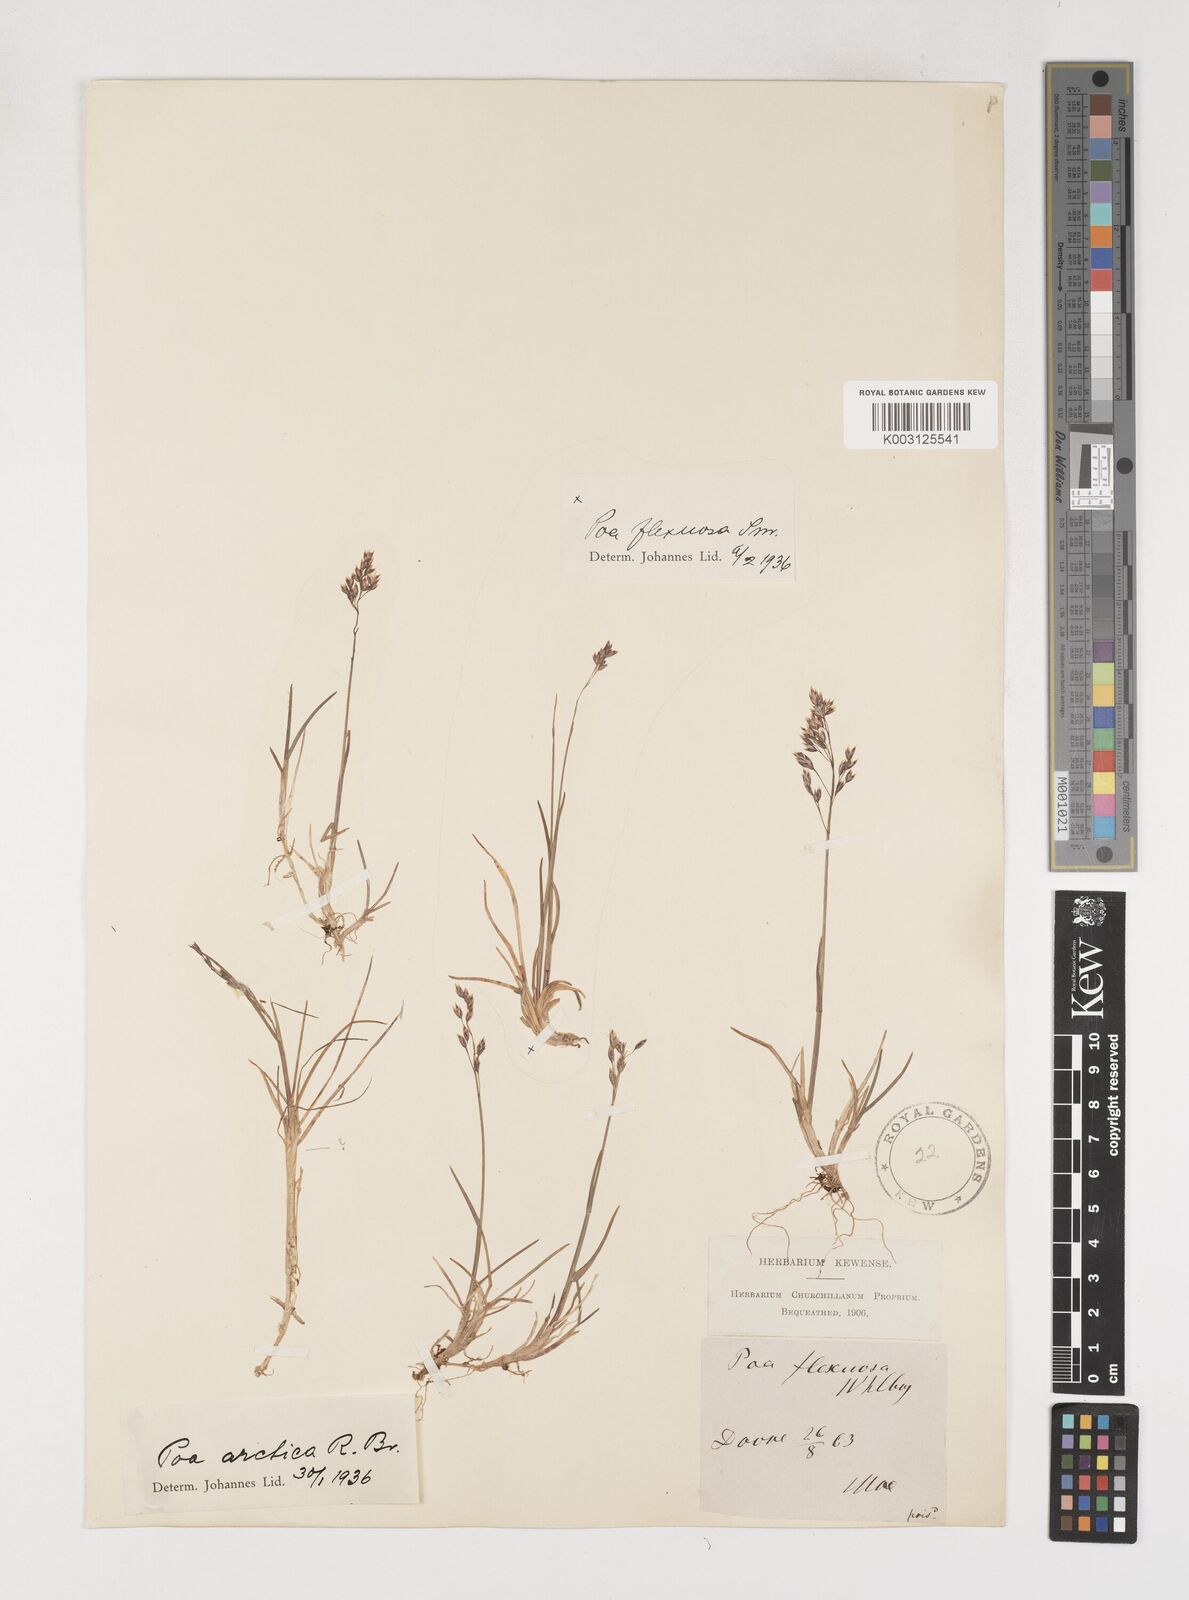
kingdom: Plantae
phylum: Tracheophyta
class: Liliopsida
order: Poales
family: Poaceae
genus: Poa
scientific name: Poa arctica
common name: Arctic bluegrass
